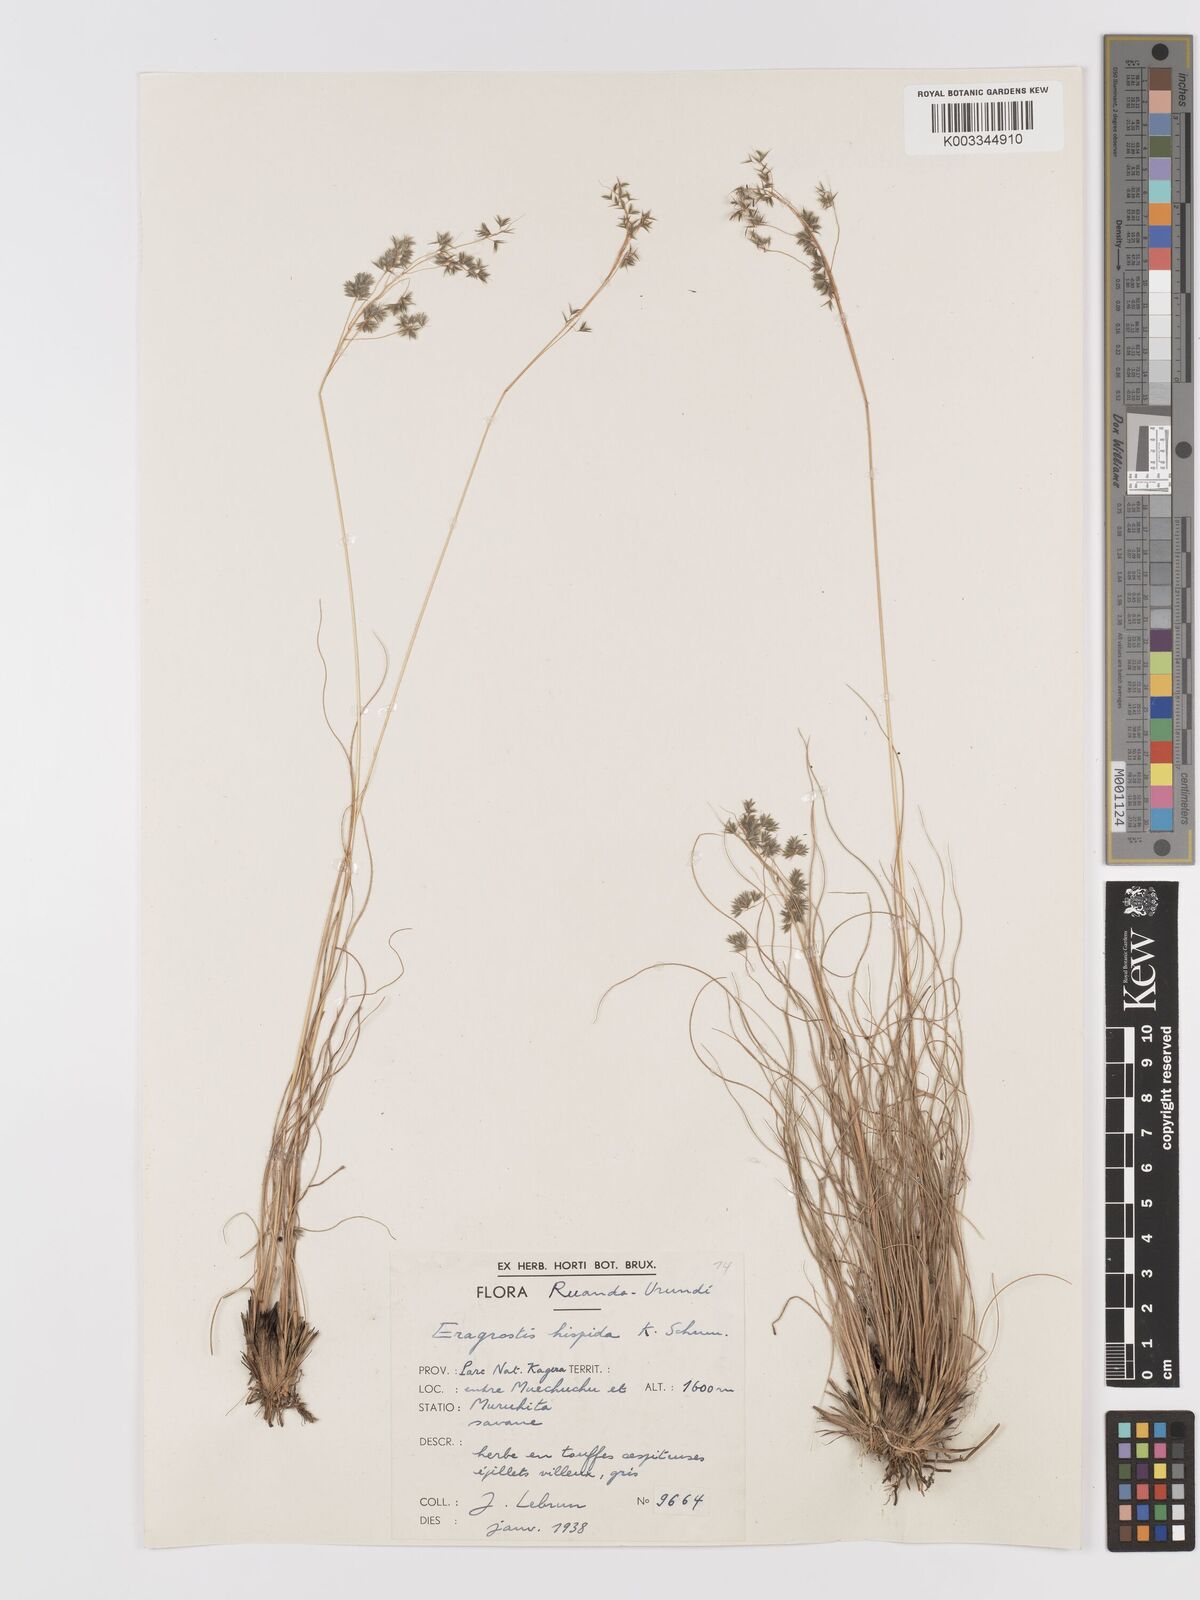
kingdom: Plantae
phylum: Tracheophyta
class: Liliopsida
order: Poales
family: Poaceae
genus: Eragrostis
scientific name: Eragrostis hispida
